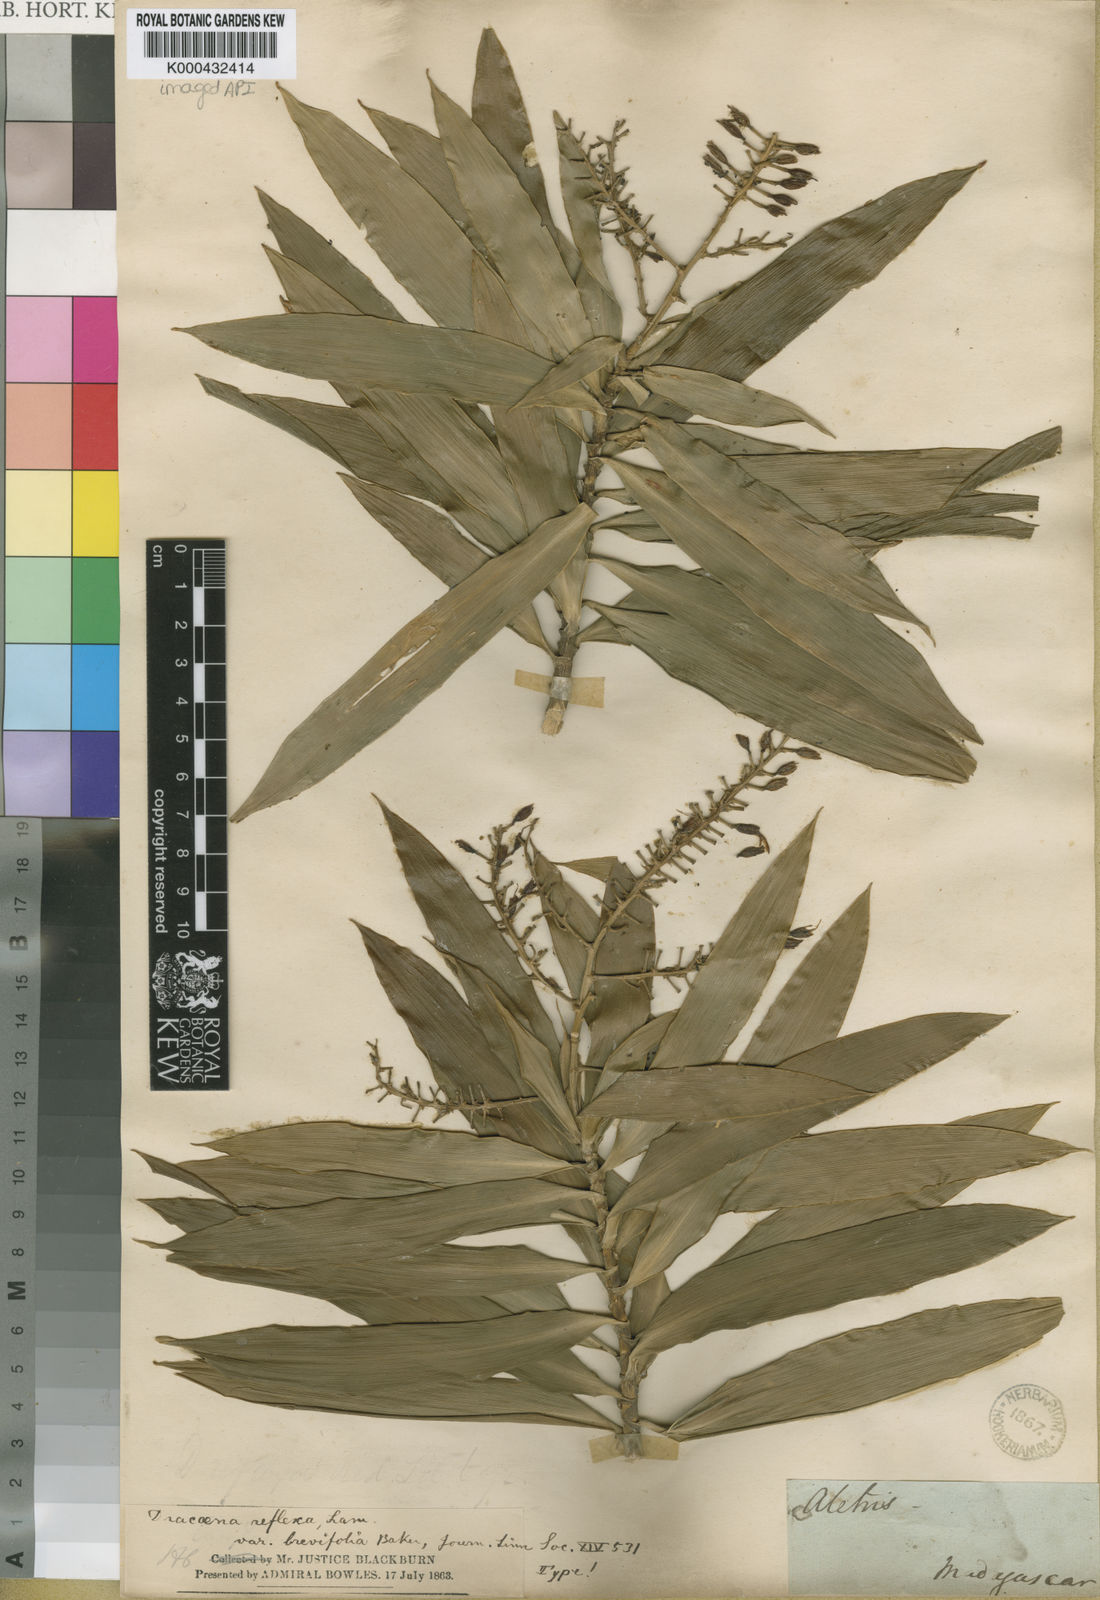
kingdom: Plantae
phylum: Tracheophyta
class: Liliopsida
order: Asparagales
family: Asparagaceae
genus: Dracaena
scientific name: Dracaena reflexa
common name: Song-of-india
